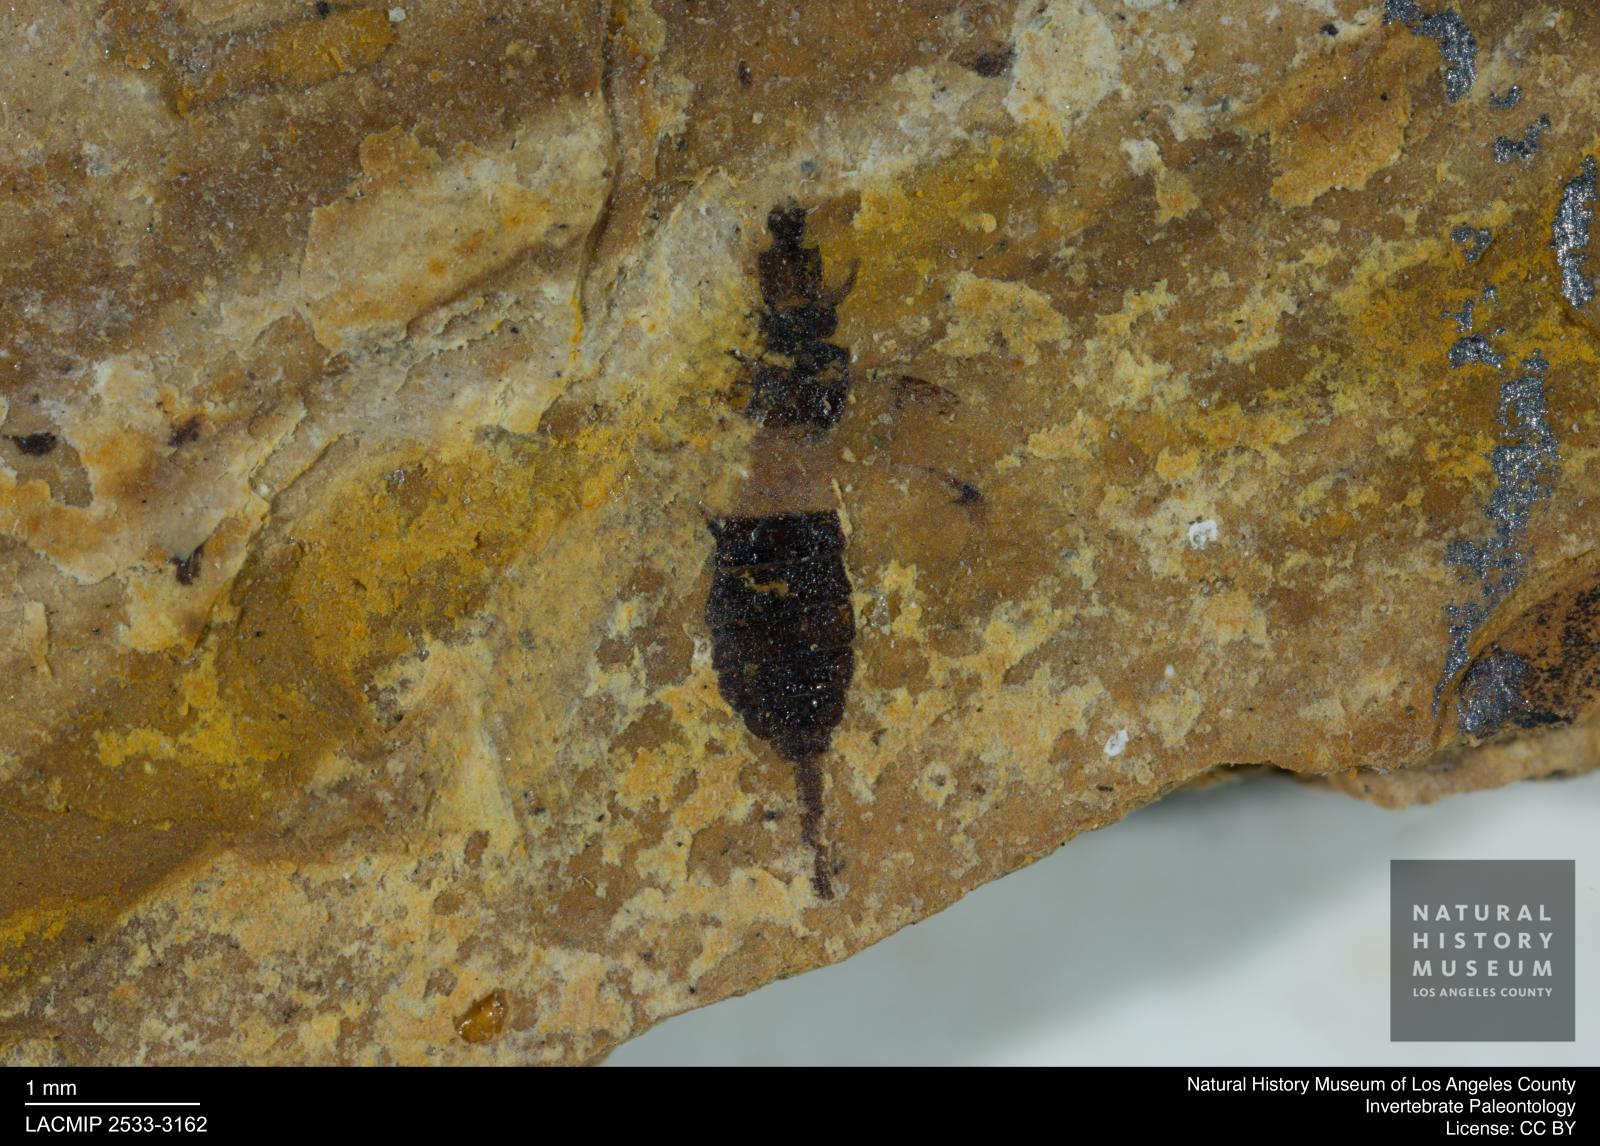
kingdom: Animalia
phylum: Arthropoda
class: Insecta
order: Thysanoptera
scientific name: Thysanoptera
